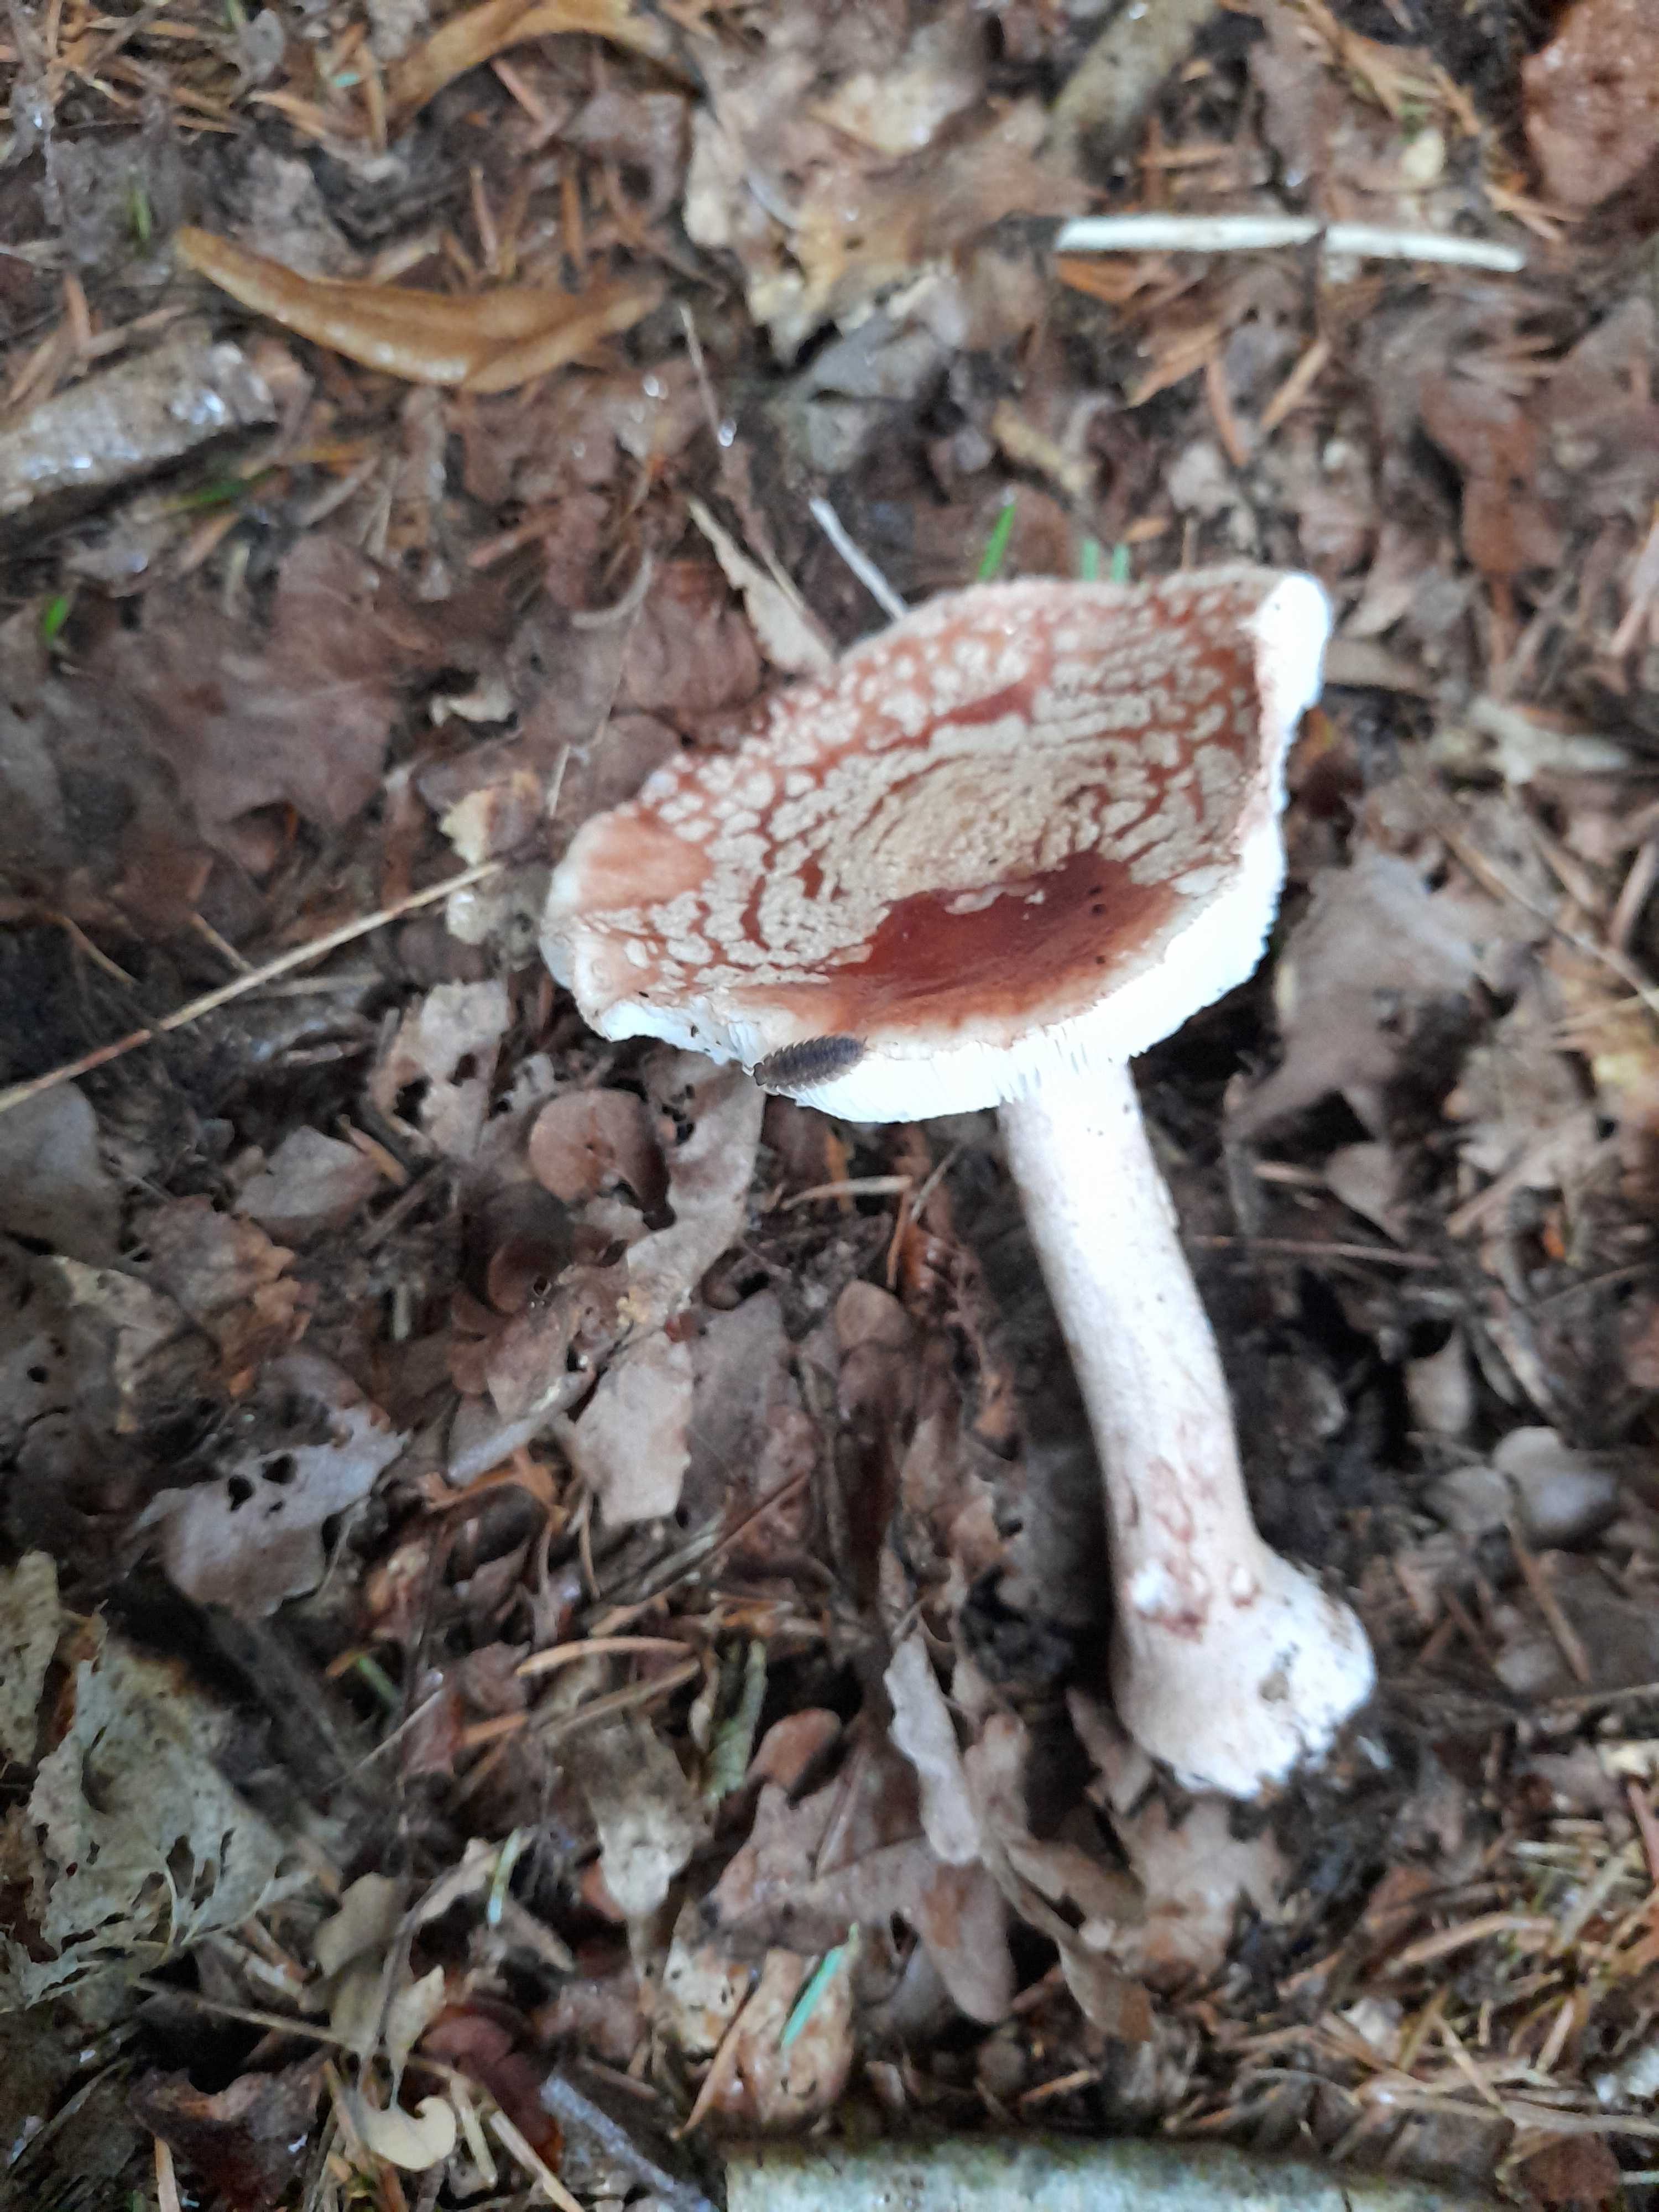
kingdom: Fungi
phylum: Basidiomycota
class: Agaricomycetes
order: Agaricales
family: Amanitaceae
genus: Amanita
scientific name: Amanita rubescens
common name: rødmende fluesvamp
